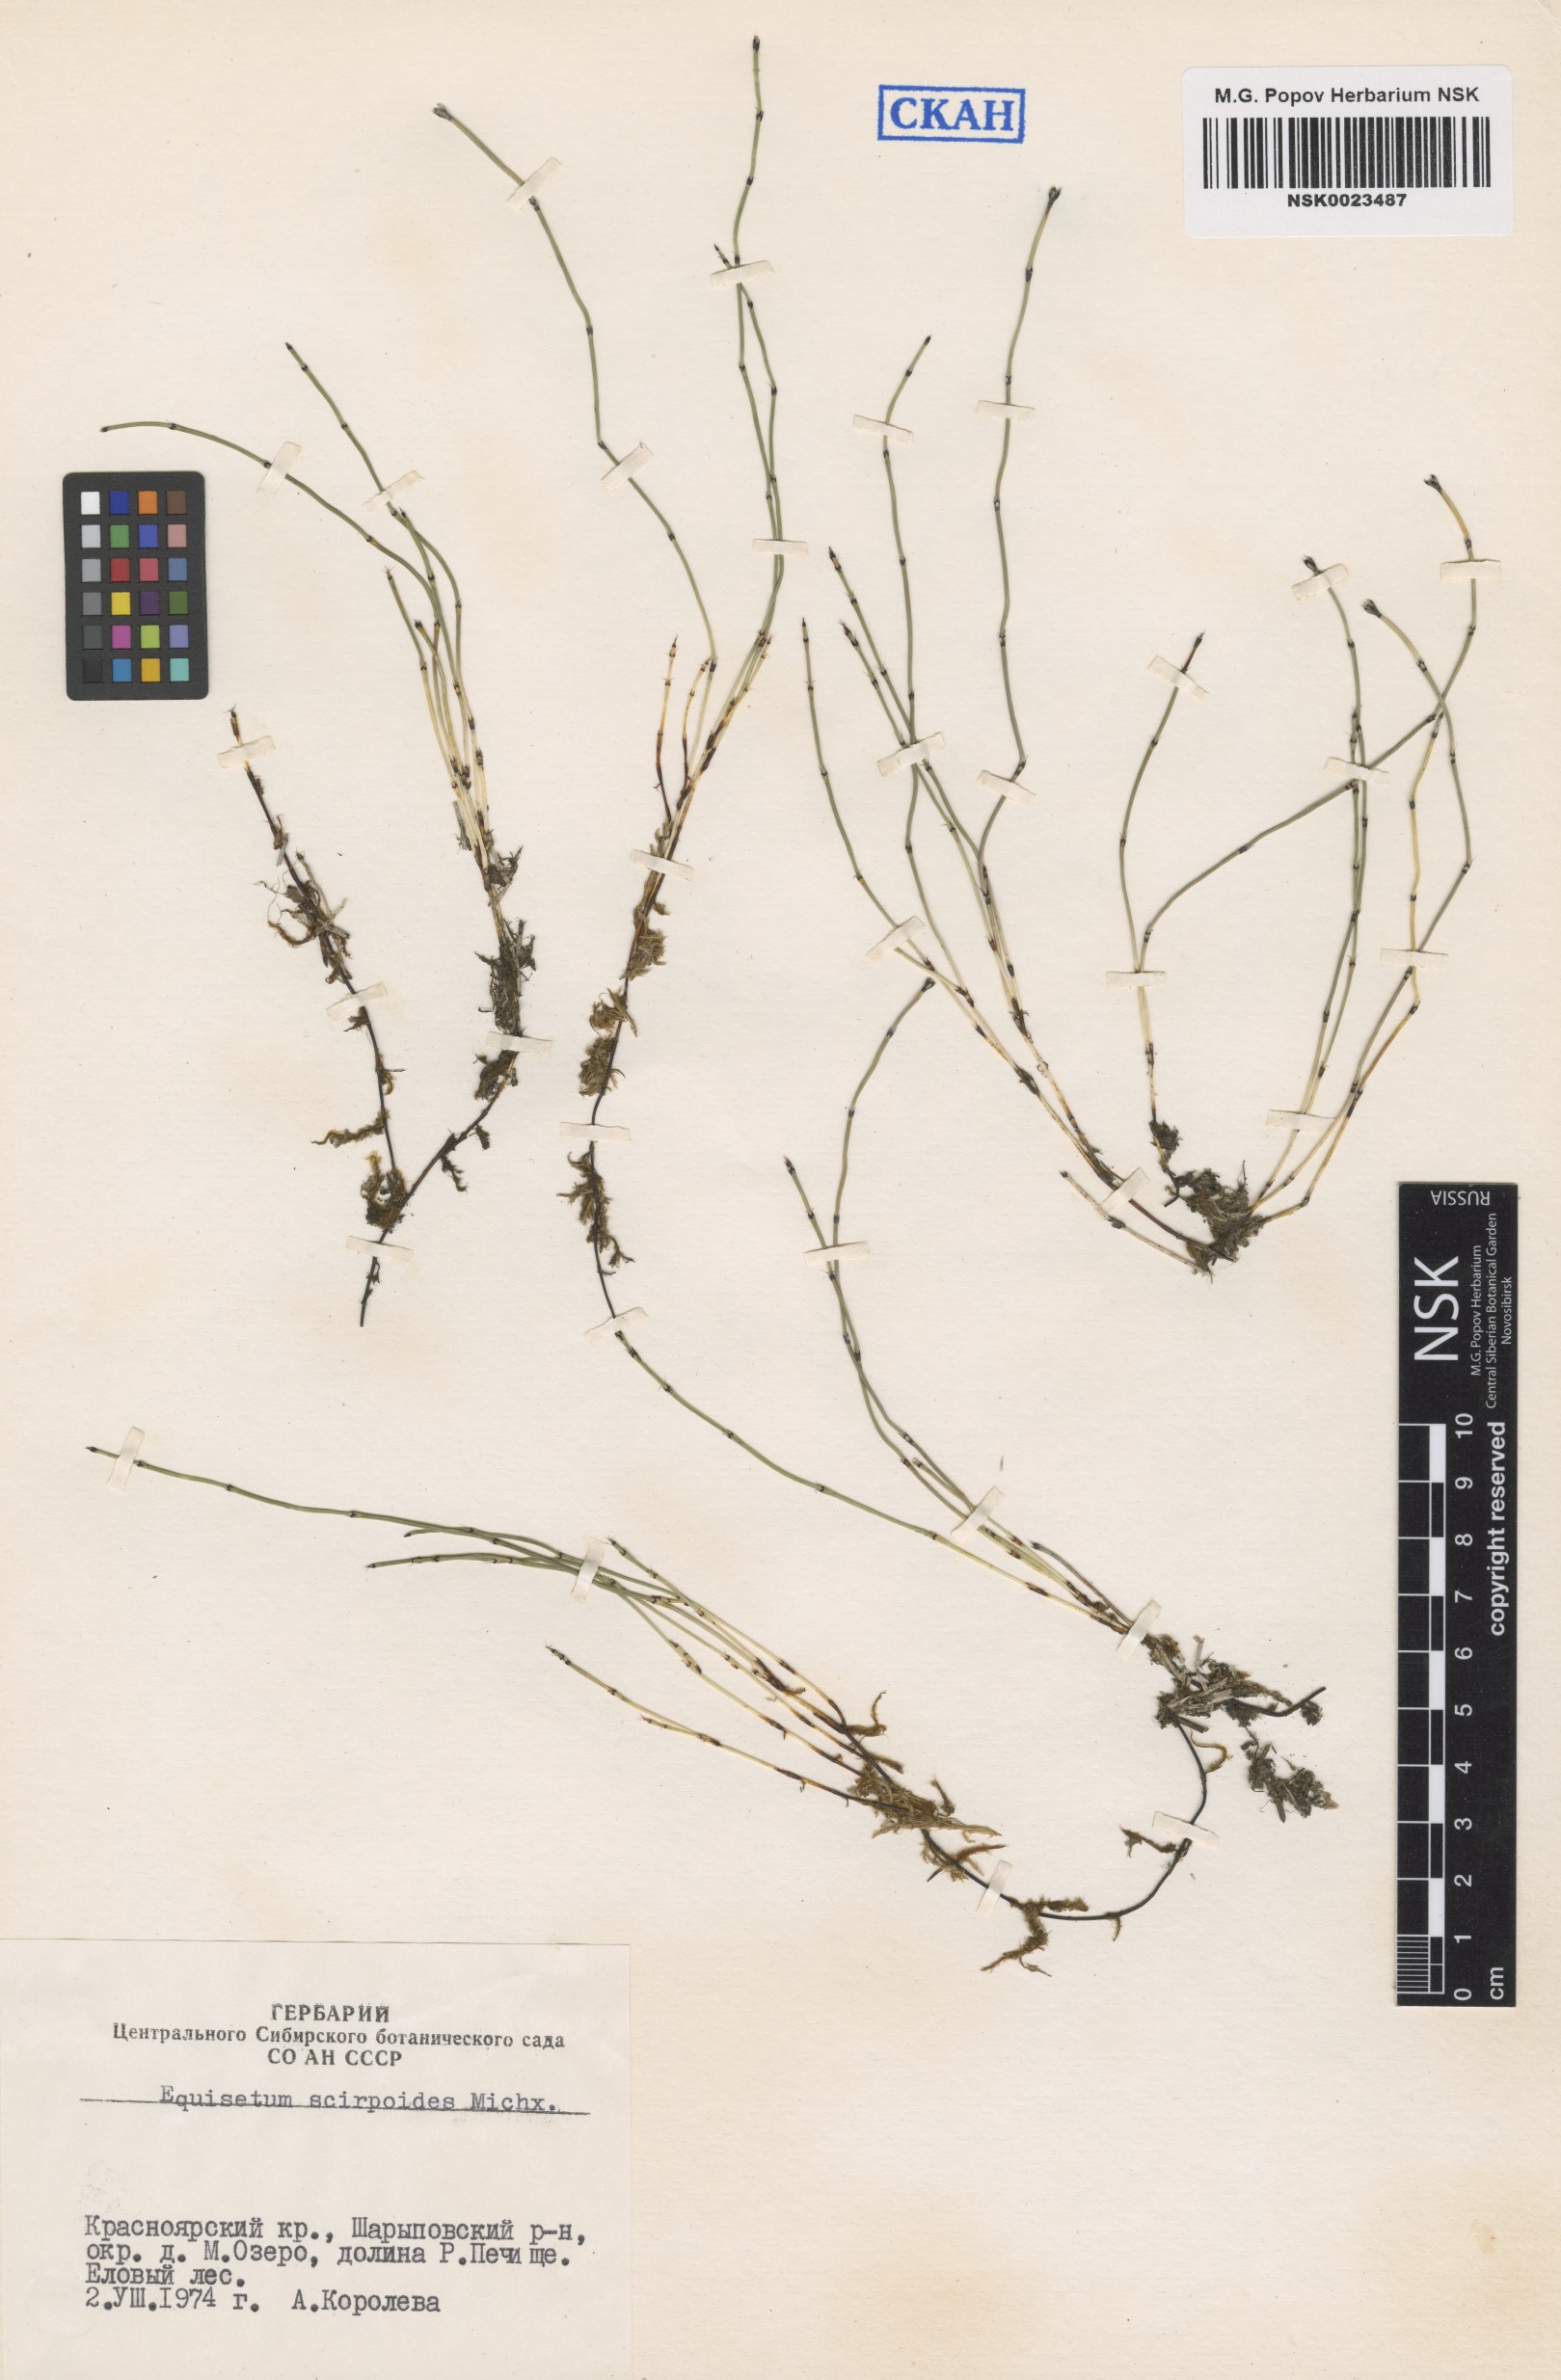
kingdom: Plantae
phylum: Tracheophyta
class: Polypodiopsida
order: Equisetales
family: Equisetaceae
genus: Equisetum
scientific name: Equisetum scirpoides
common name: Delicate horsetail
